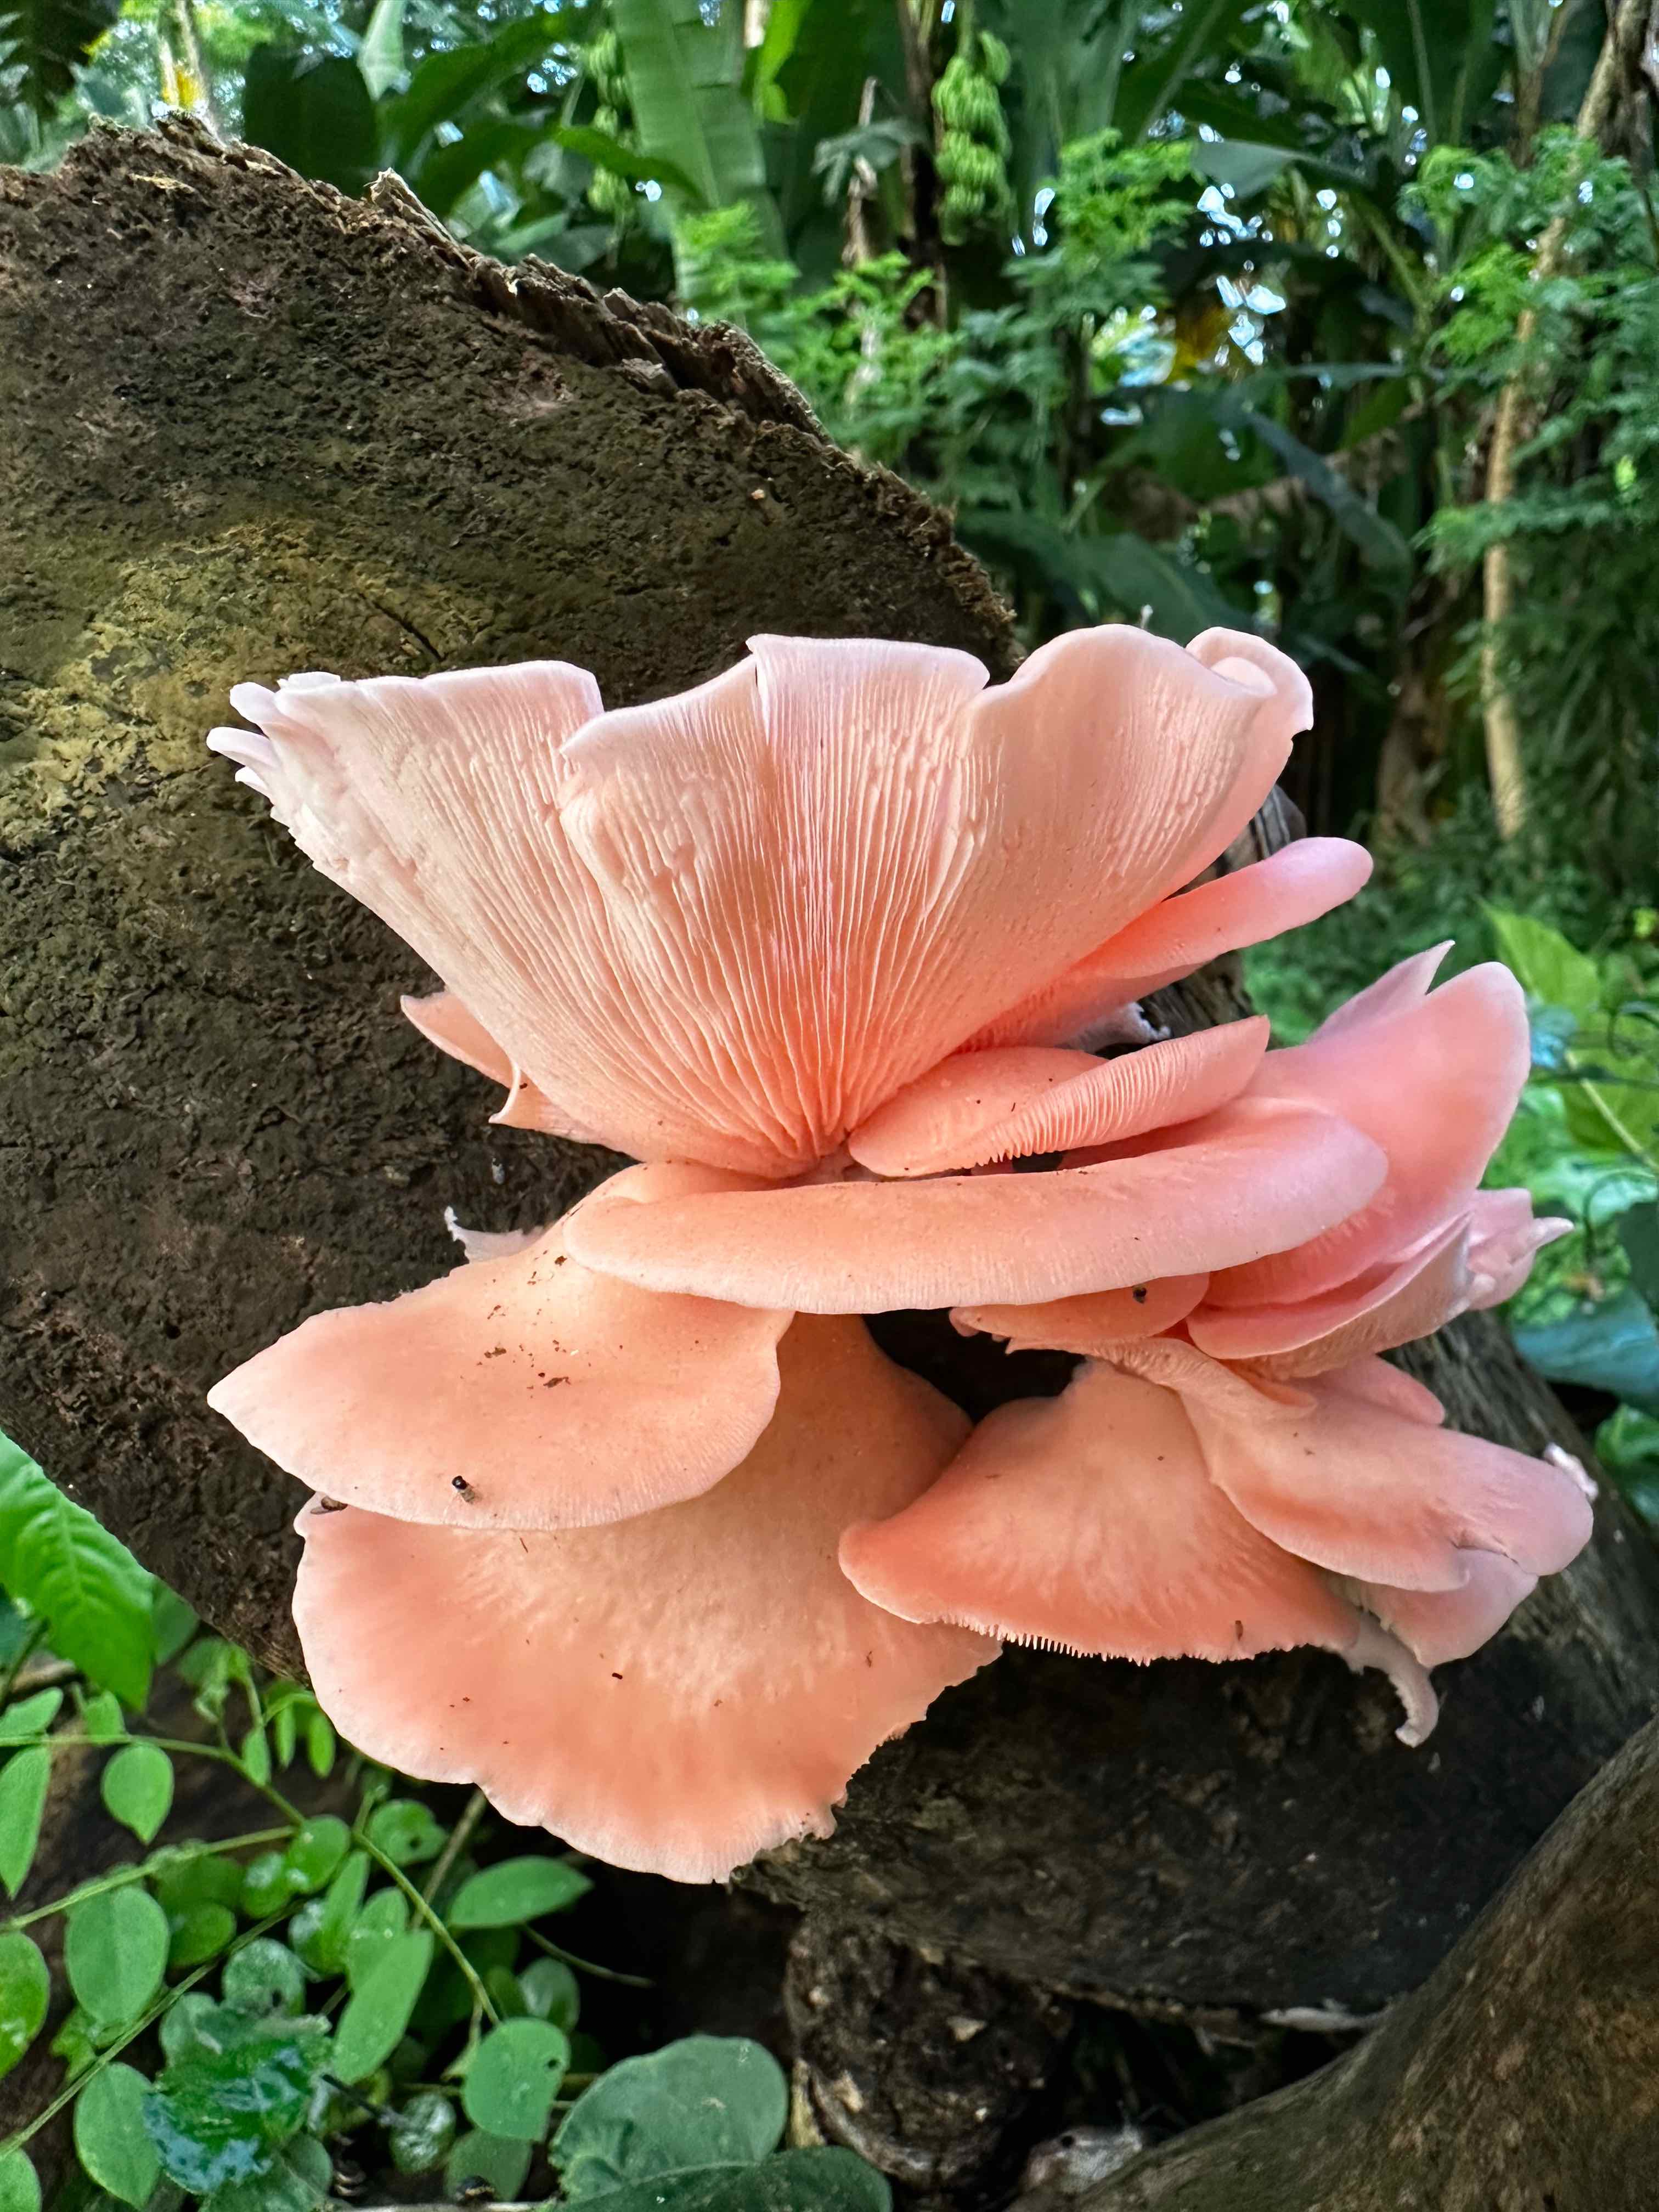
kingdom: Fungi
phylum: Basidiomycota
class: Agaricomycetes
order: Agaricales
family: Pleurotaceae
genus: Pleurotus
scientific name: Pleurotus djamor
